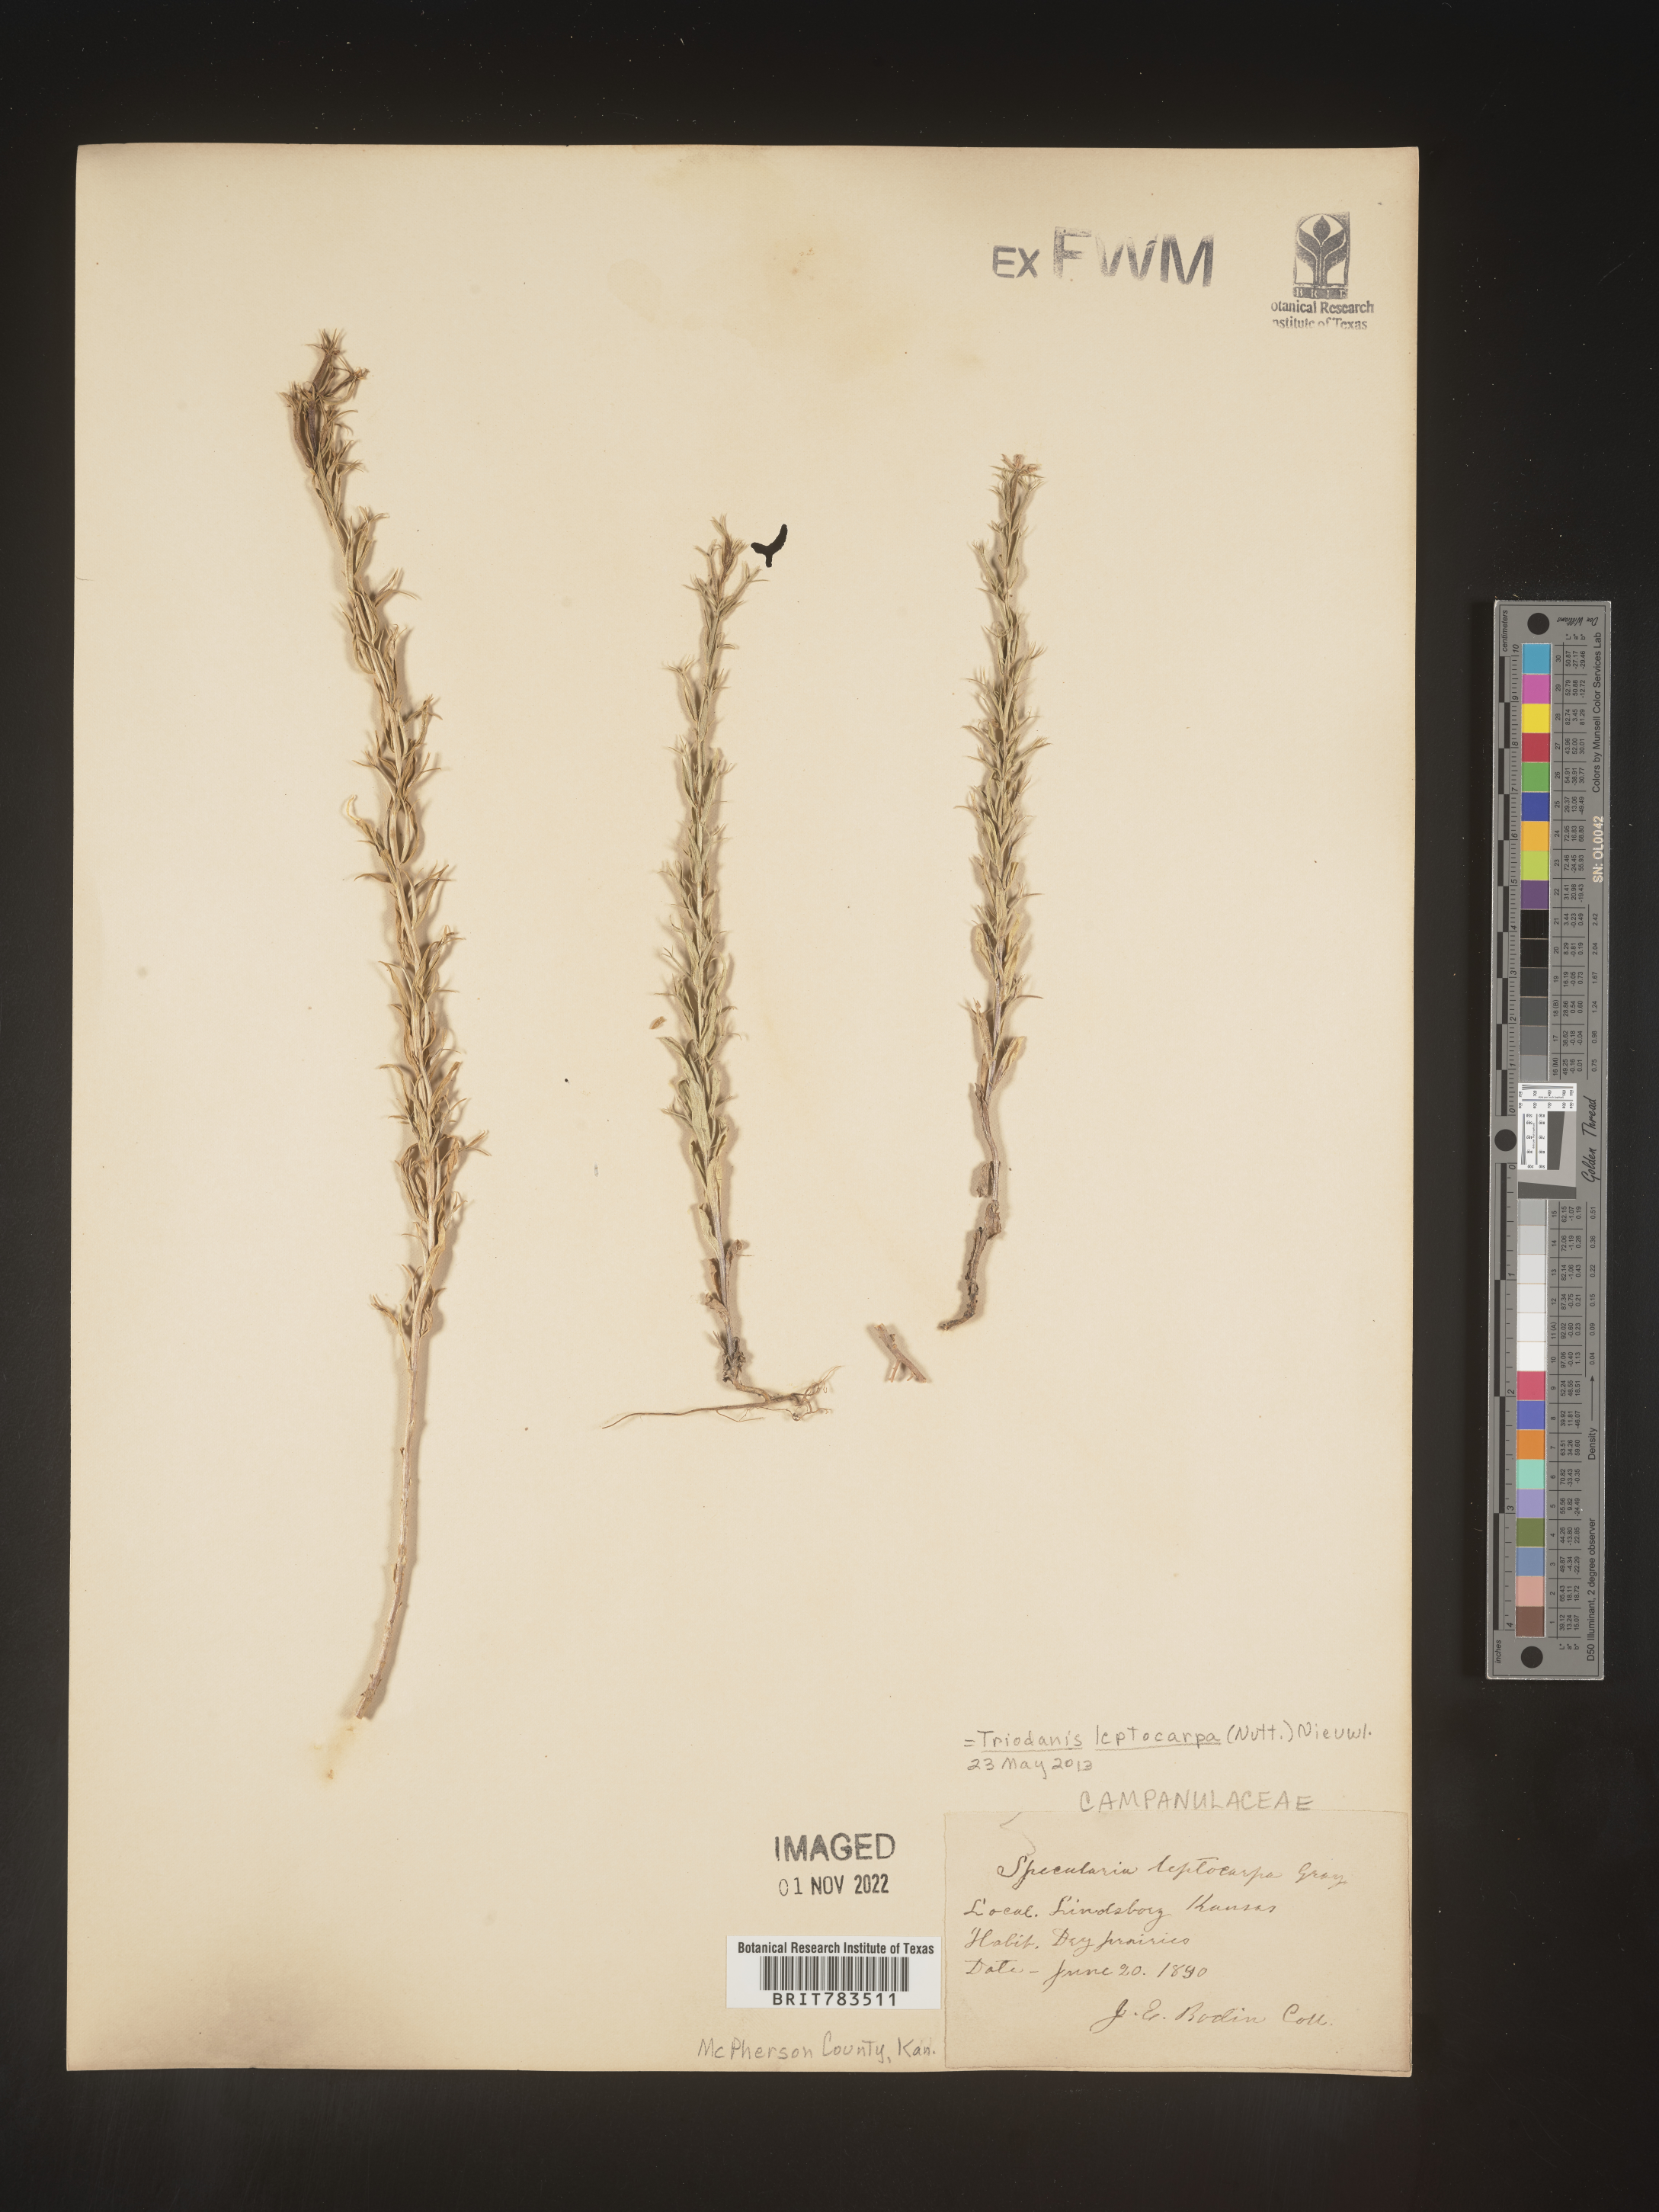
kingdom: Plantae
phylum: Tracheophyta
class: Magnoliopsida
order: Asterales
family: Campanulaceae
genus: Triodanis
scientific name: Triodanis leptocarpa
